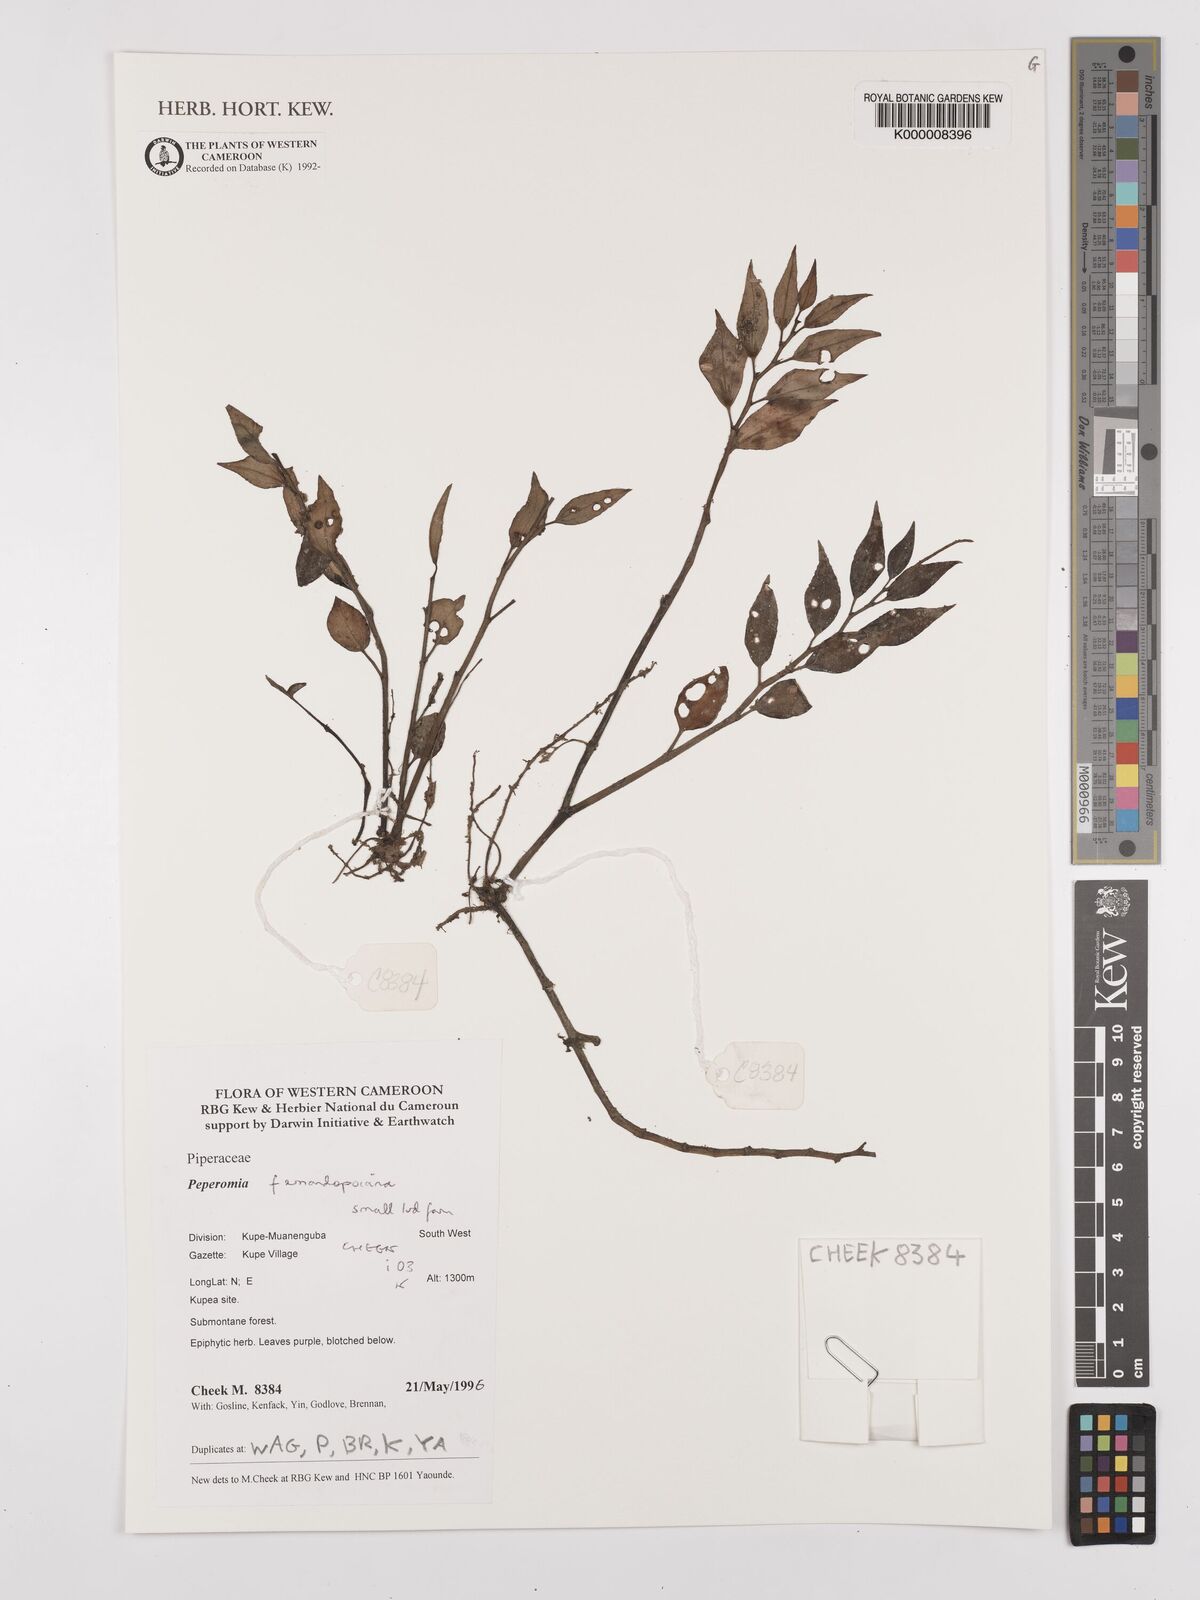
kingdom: Plantae
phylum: Tracheophyta
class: Magnoliopsida
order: Piperales
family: Piperaceae
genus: Peperomia
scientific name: Peperomia fernandopoiana
